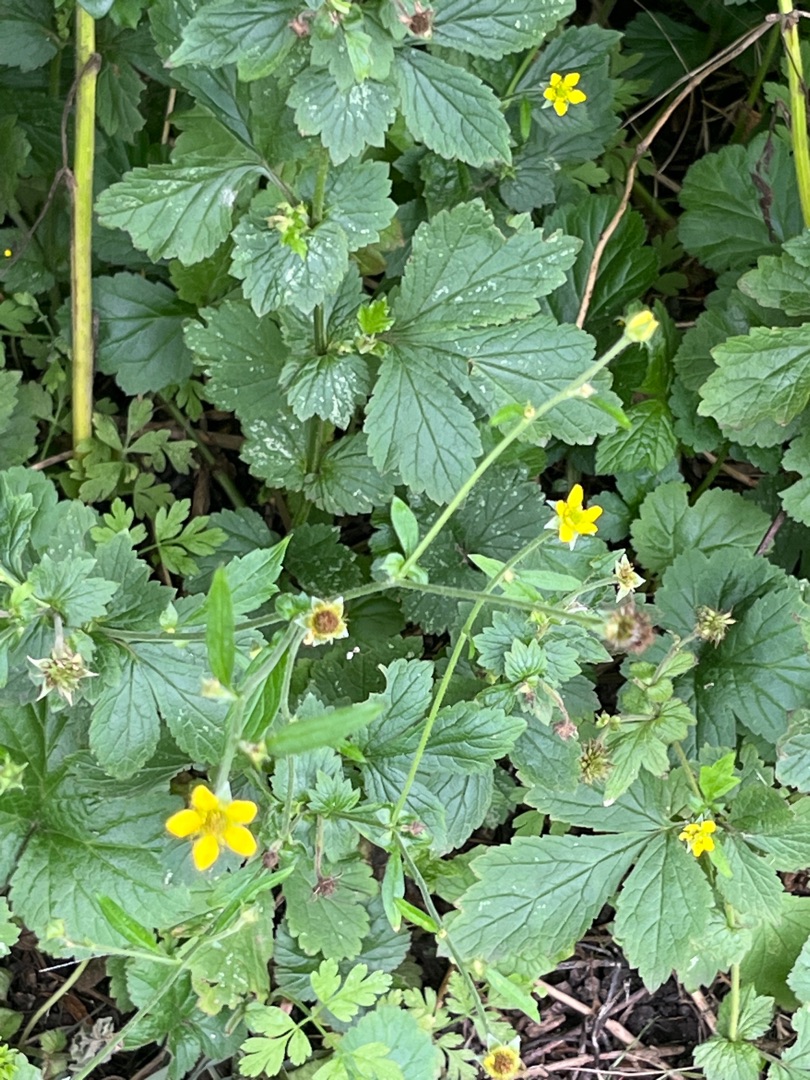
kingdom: Plantae
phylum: Tracheophyta
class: Magnoliopsida
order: Rosales
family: Rosaceae
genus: Geum
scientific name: Geum urbanum
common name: Feber-nellikerod
